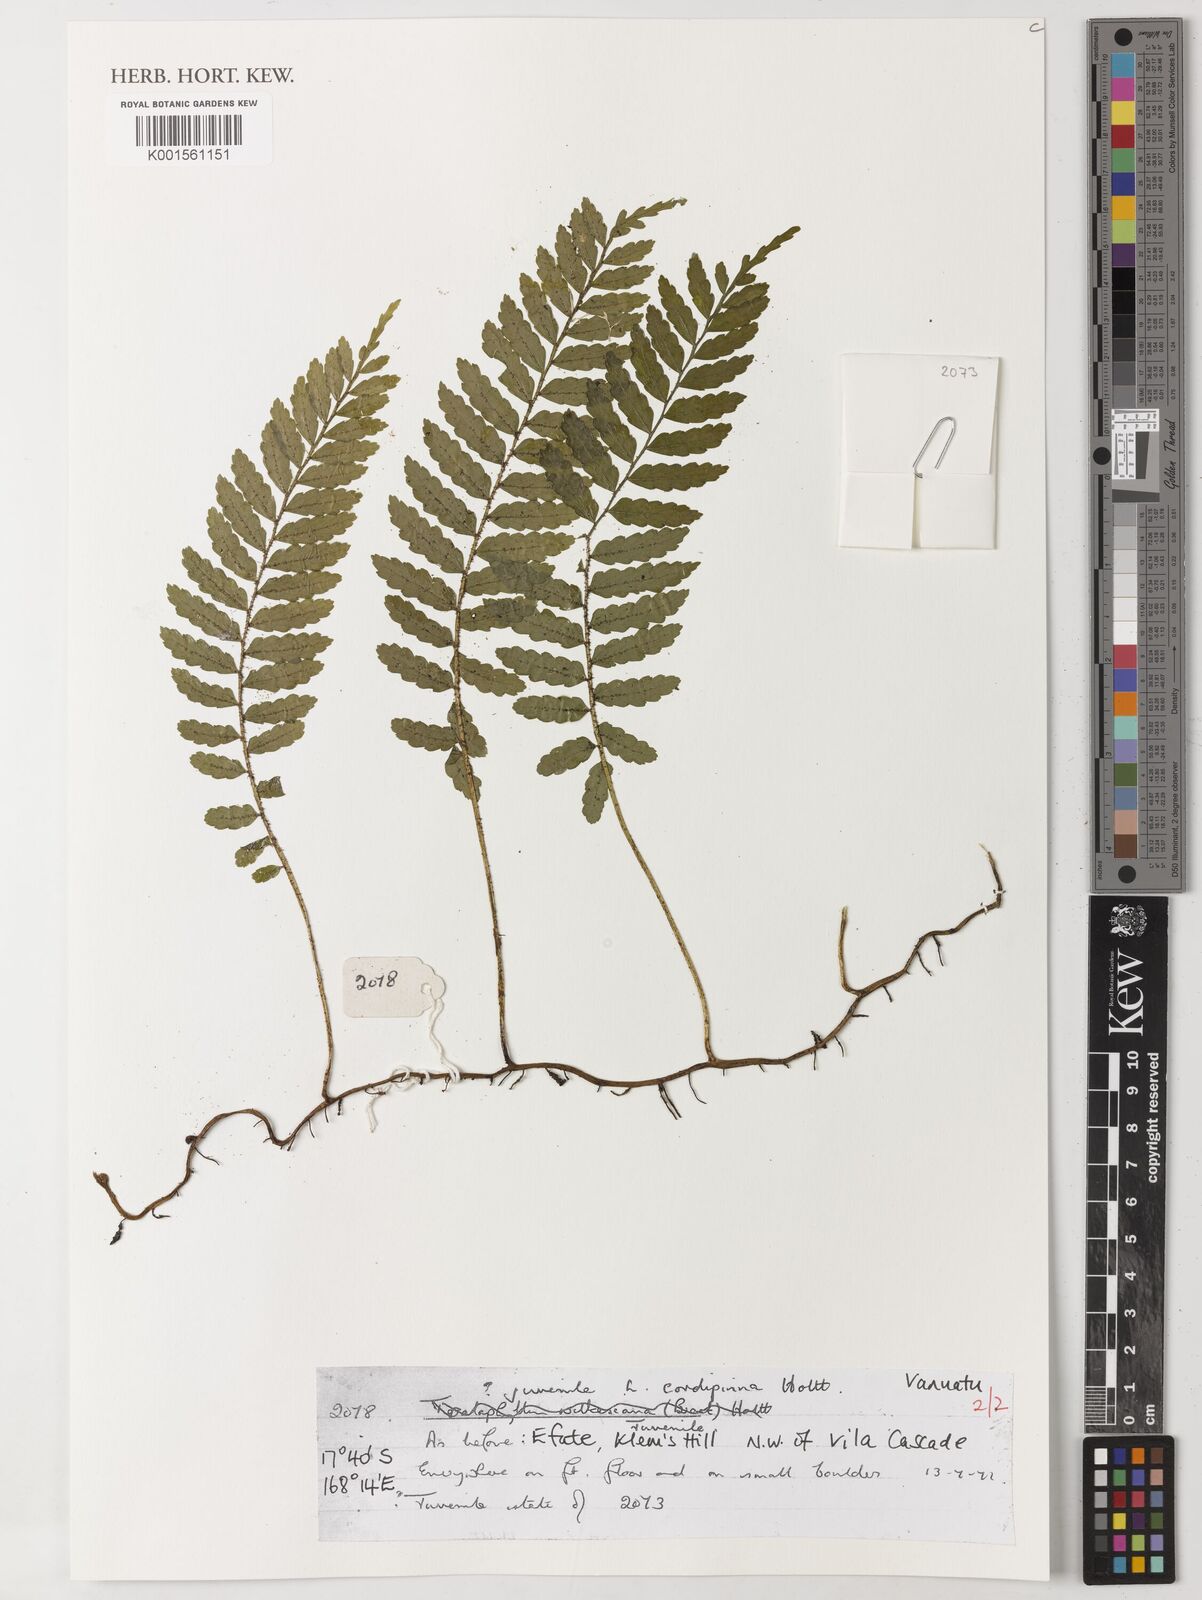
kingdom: Plantae
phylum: Tracheophyta
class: Polypodiopsida
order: Polypodiales
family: Dryopteridaceae
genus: Lomagramma
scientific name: Lomagramma cordipinna
